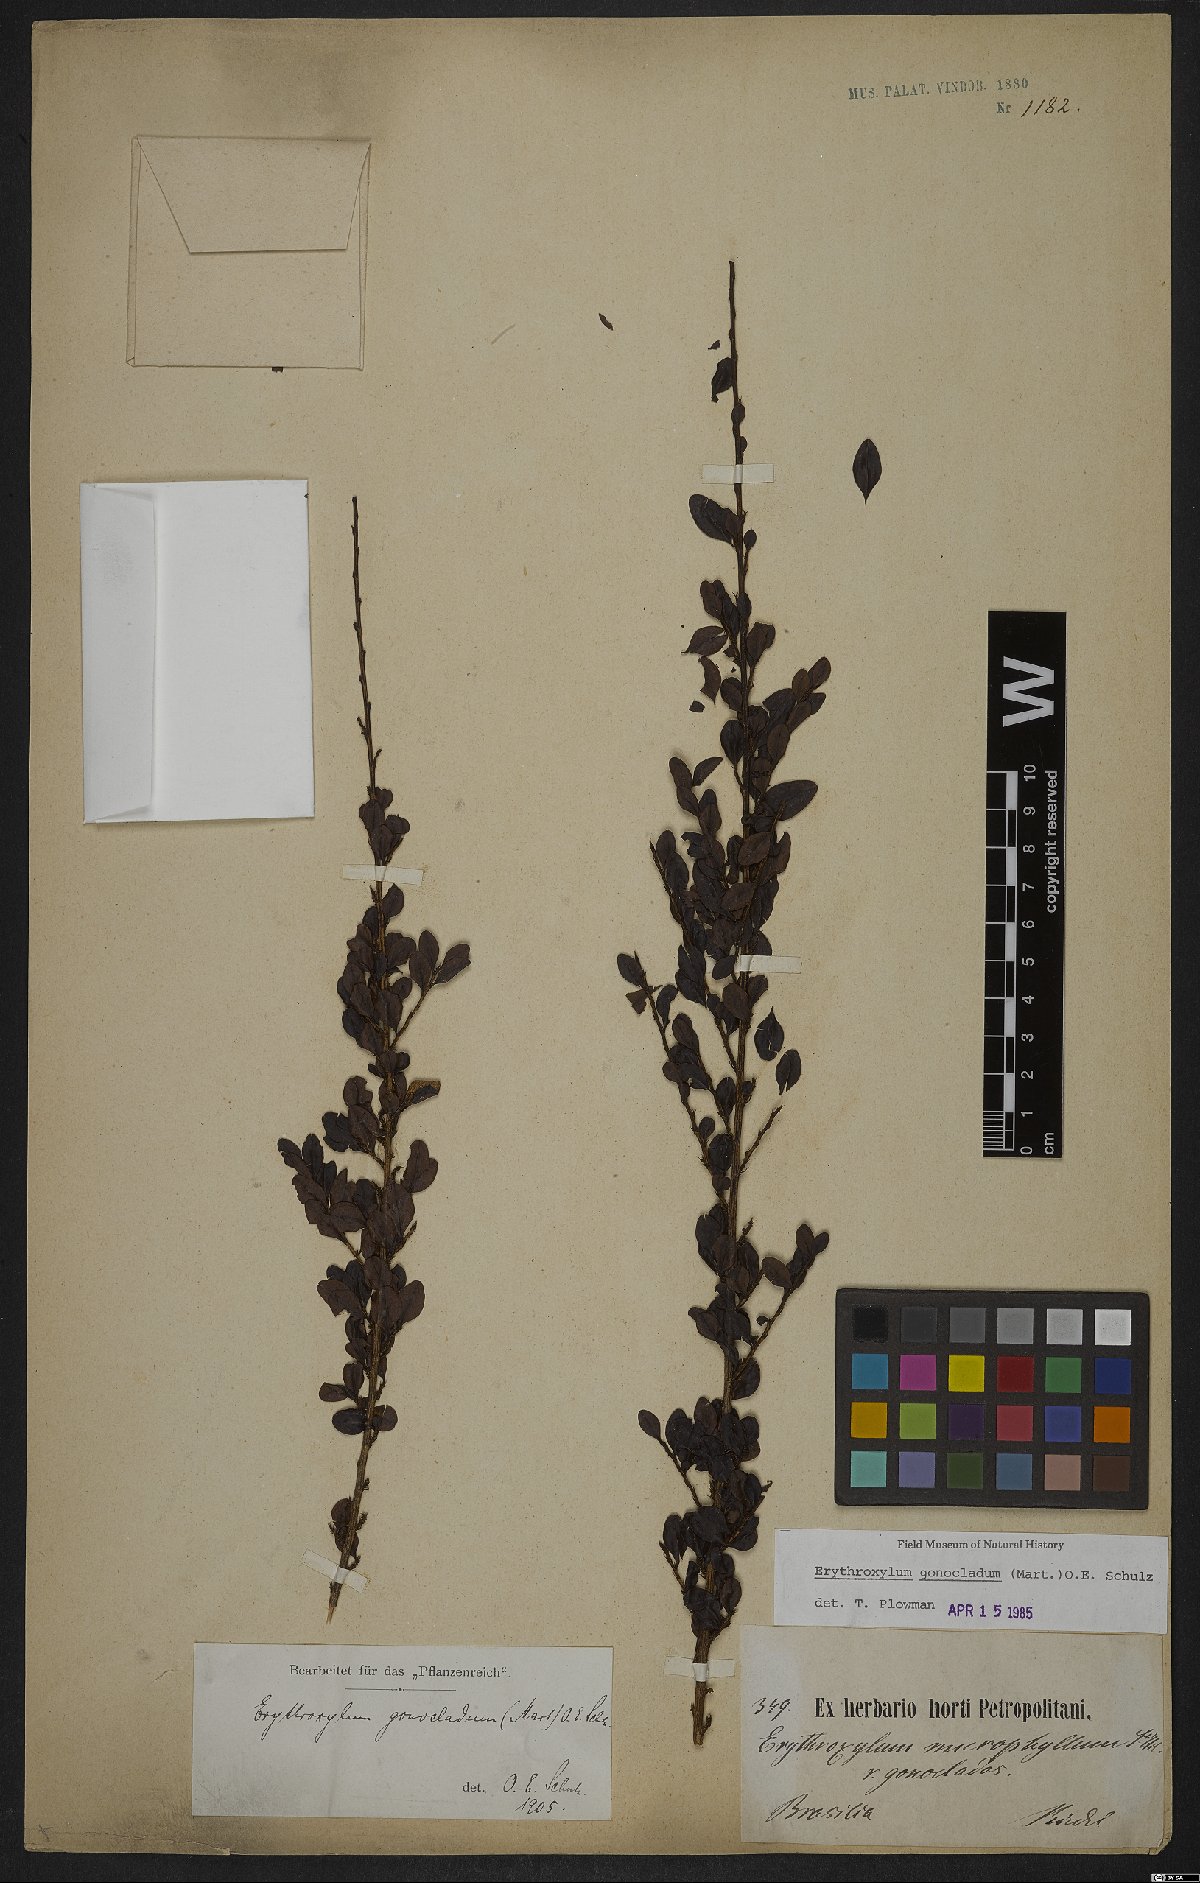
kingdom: Plantae
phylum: Tracheophyta
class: Magnoliopsida
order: Malpighiales
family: Erythroxylaceae
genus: Erythroxylum
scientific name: Erythroxylum gonocladum
